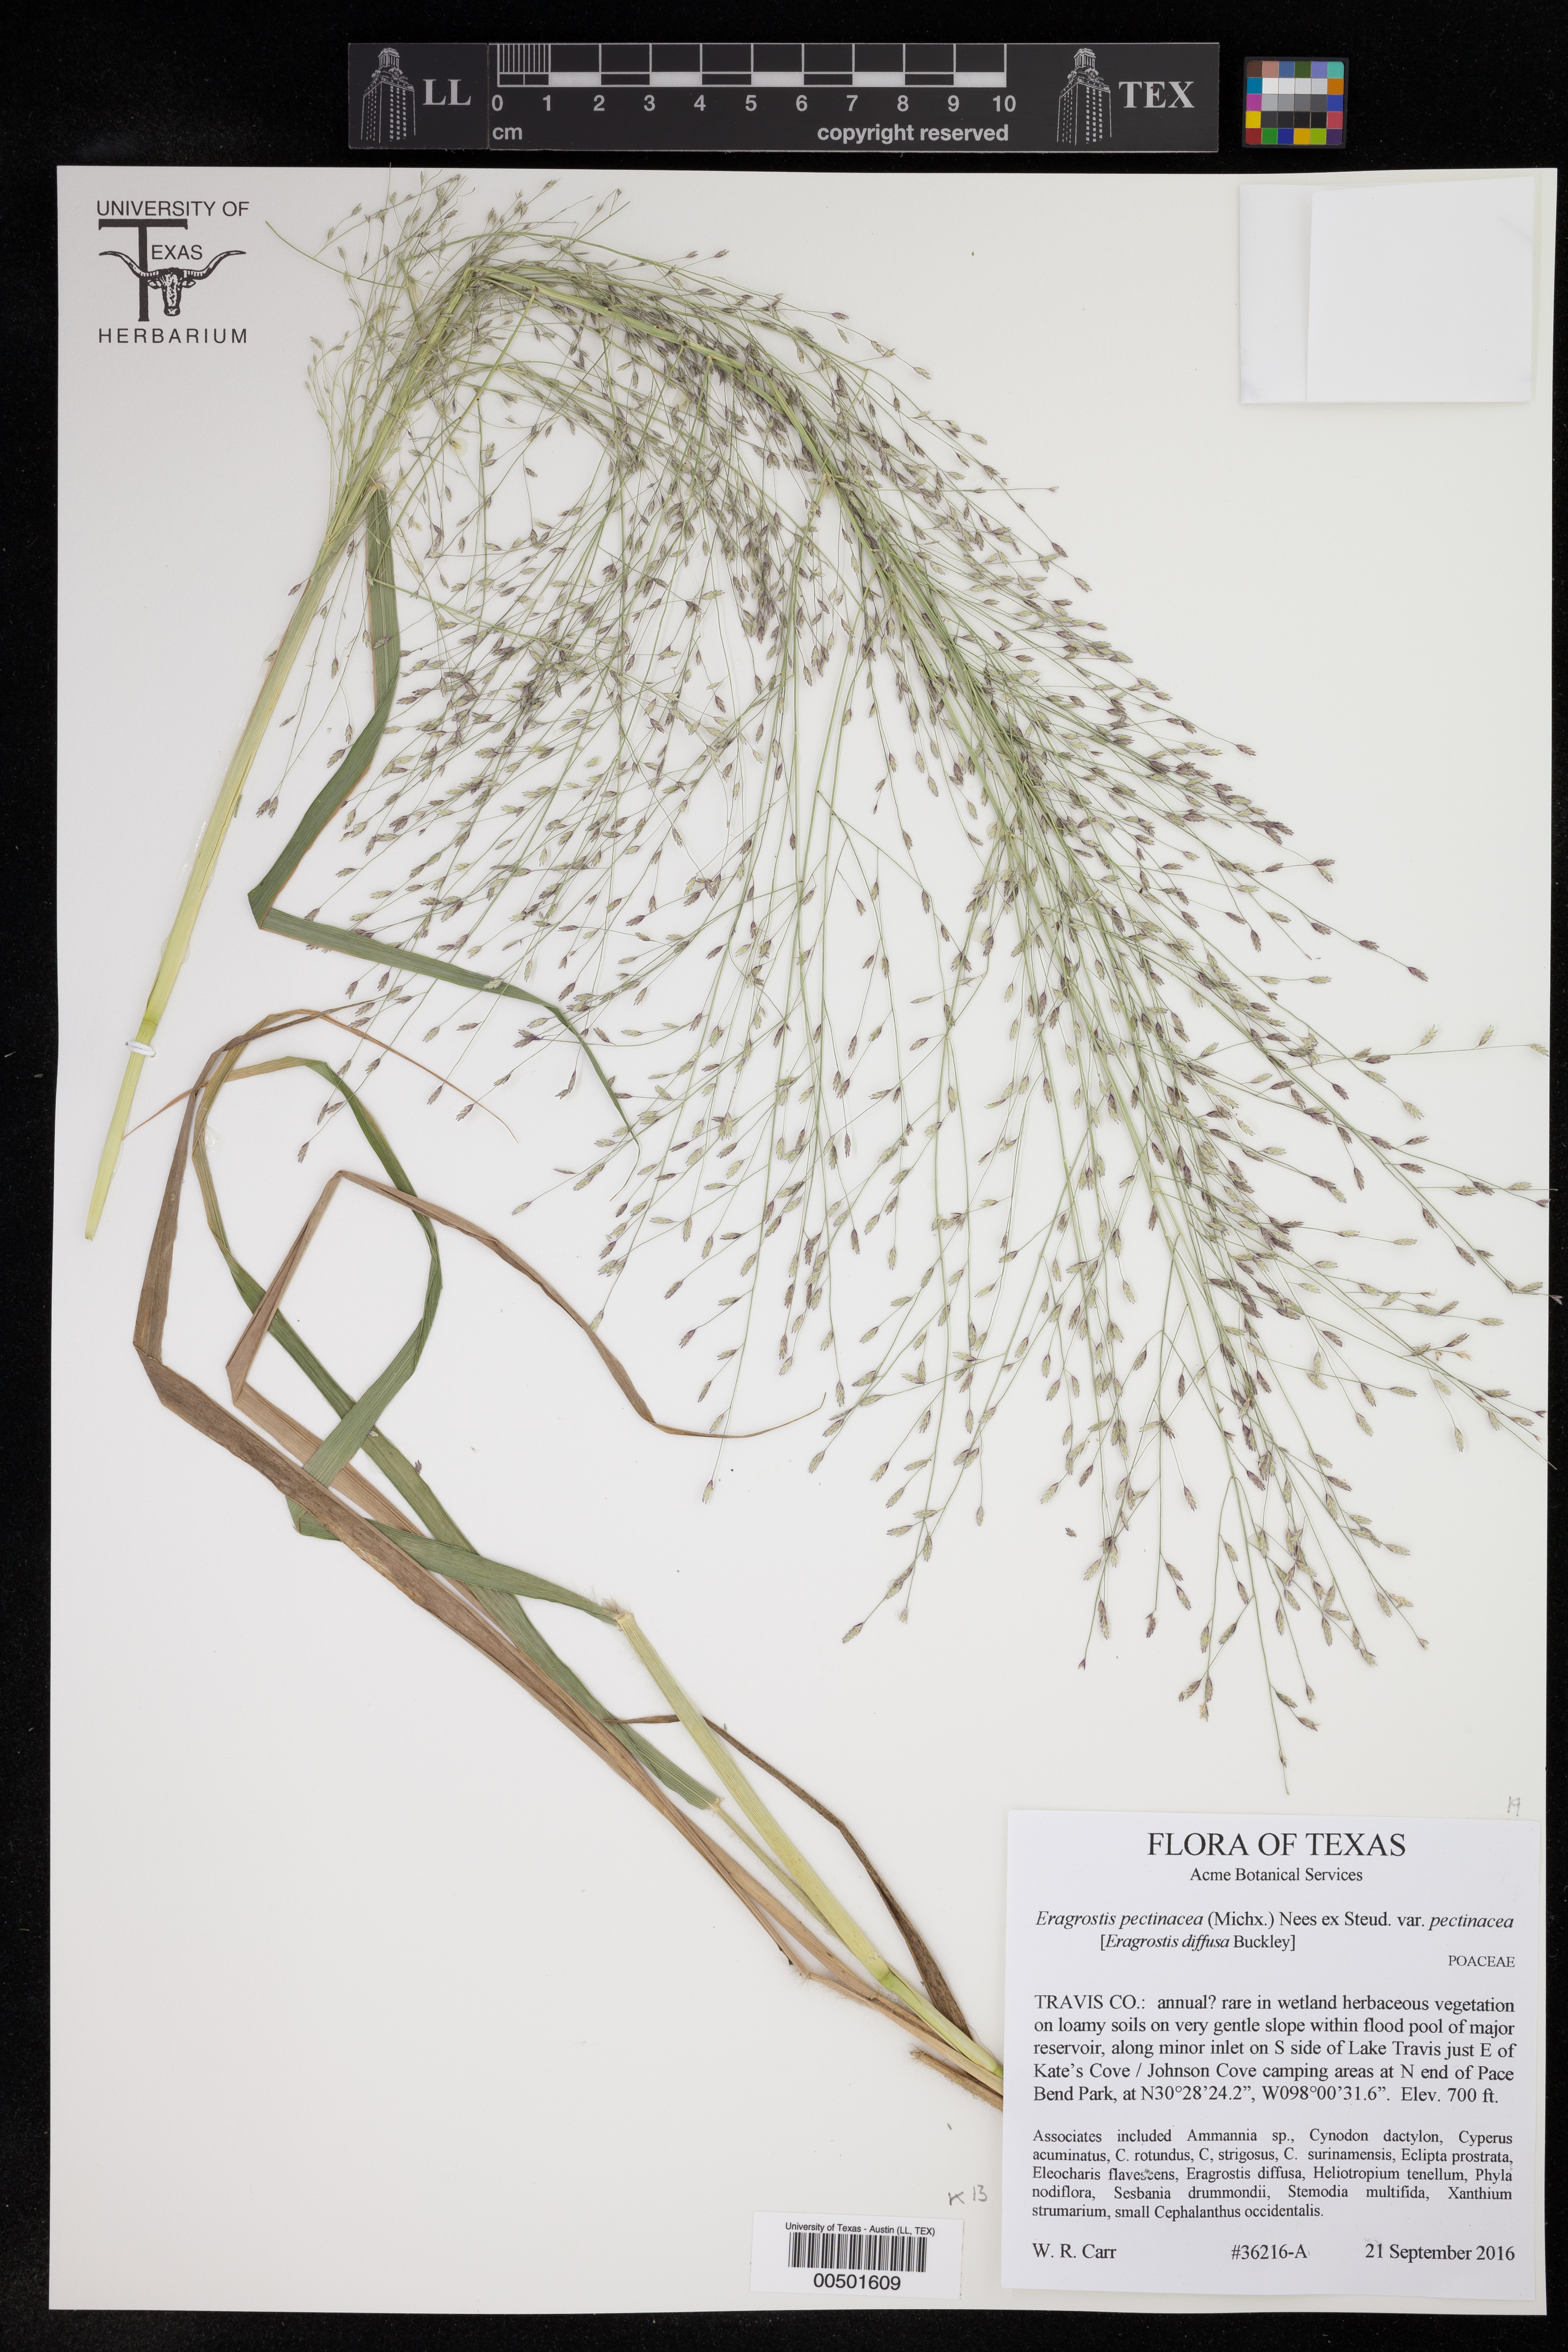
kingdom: Plantae
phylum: Tracheophyta
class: Liliopsida
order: Poales
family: Poaceae
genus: Eragrostis
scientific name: Eragrostis pectinacea
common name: Tufted lovegrass
